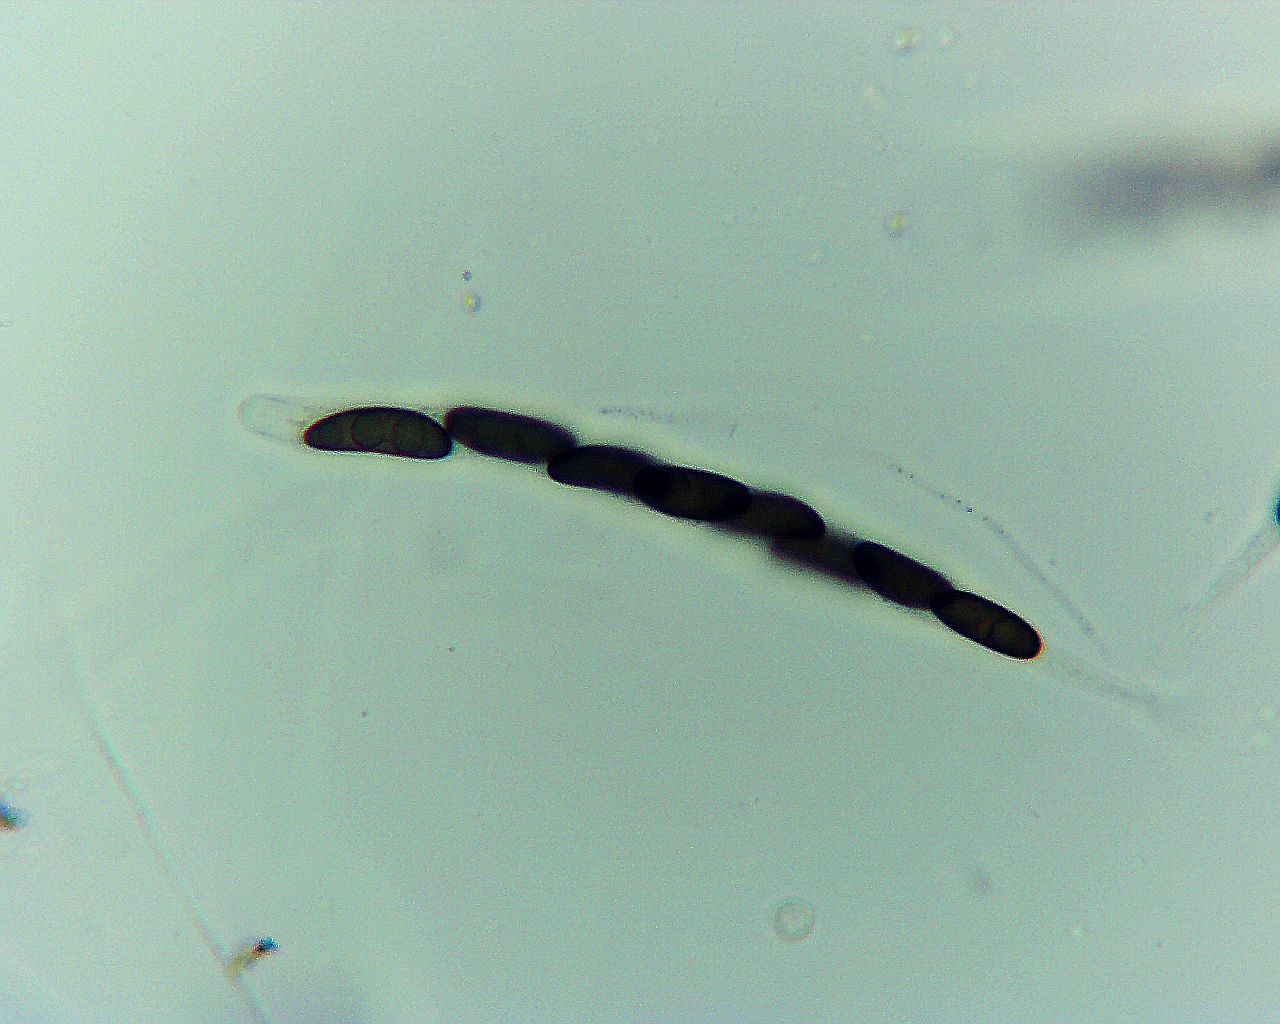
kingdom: Fungi
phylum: Ascomycota
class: Sordariomycetes
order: Xylariales
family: Xylariaceae
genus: Rosellinia
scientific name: Rosellinia
